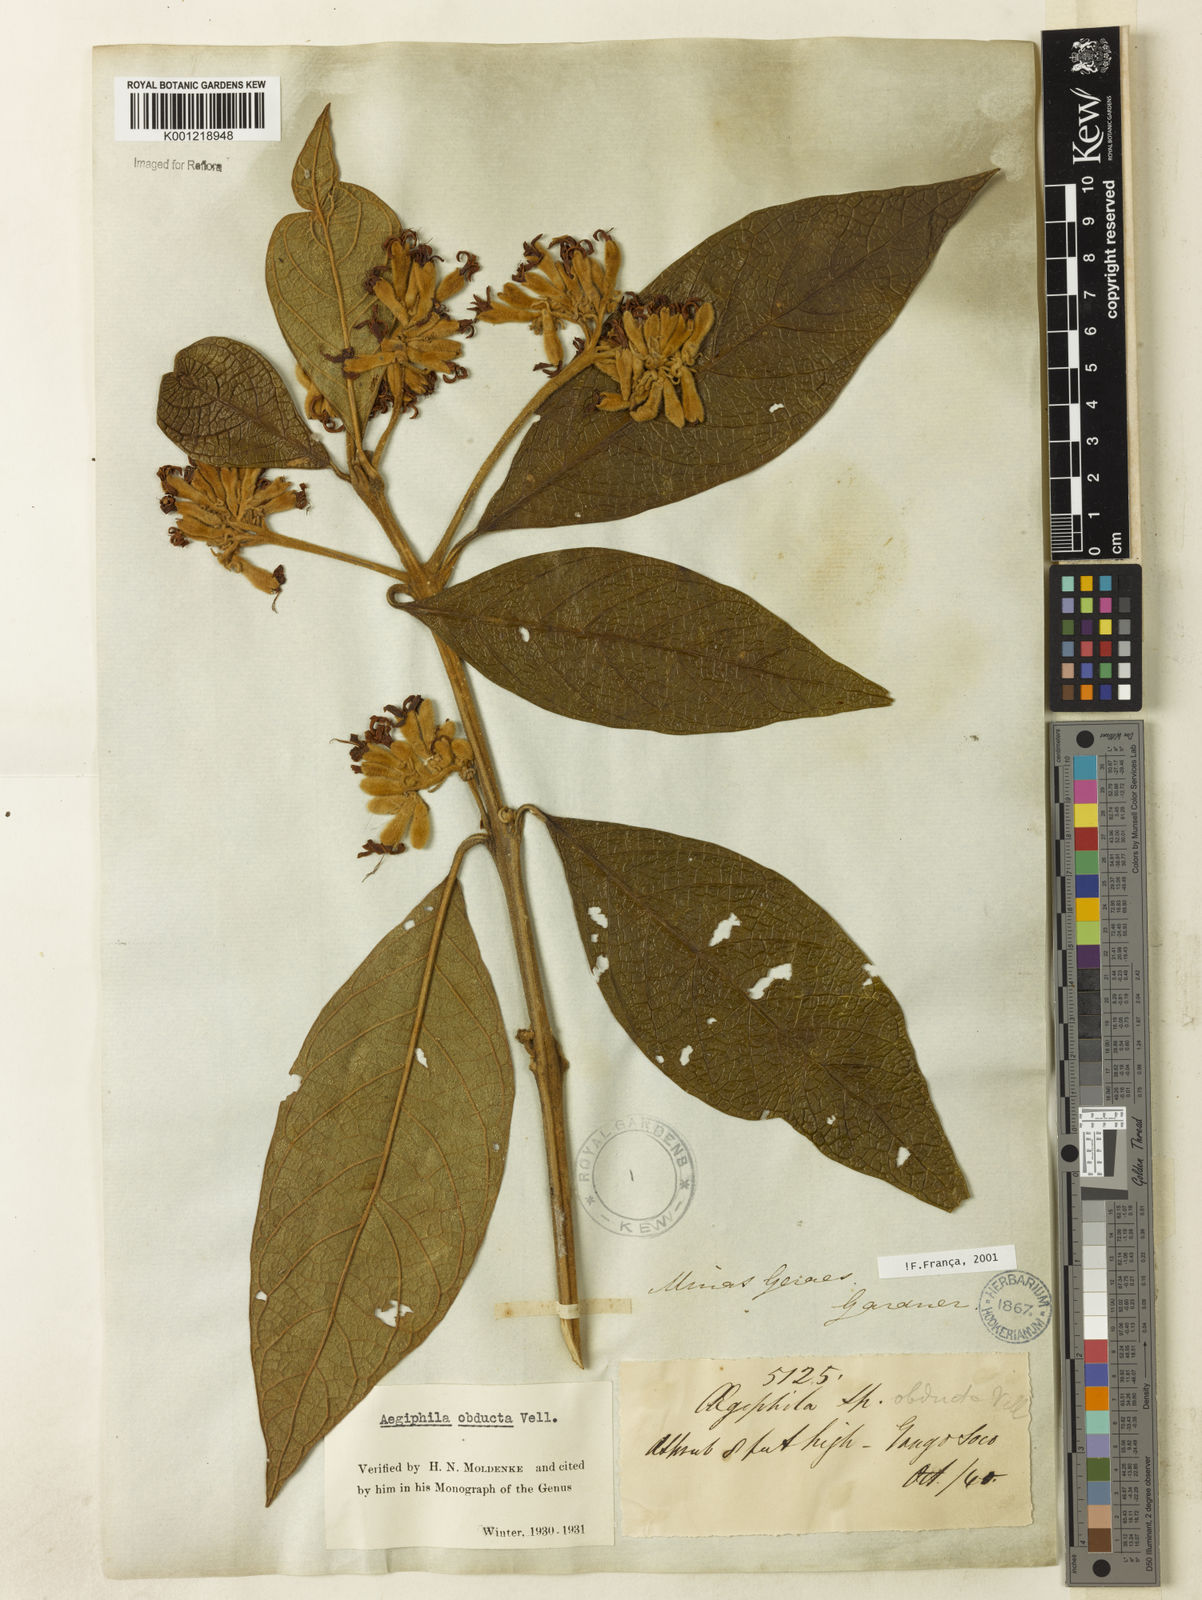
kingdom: Plantae
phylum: Tracheophyta
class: Magnoliopsida
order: Lamiales
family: Lamiaceae
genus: Aegiphila
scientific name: Aegiphila obducta
